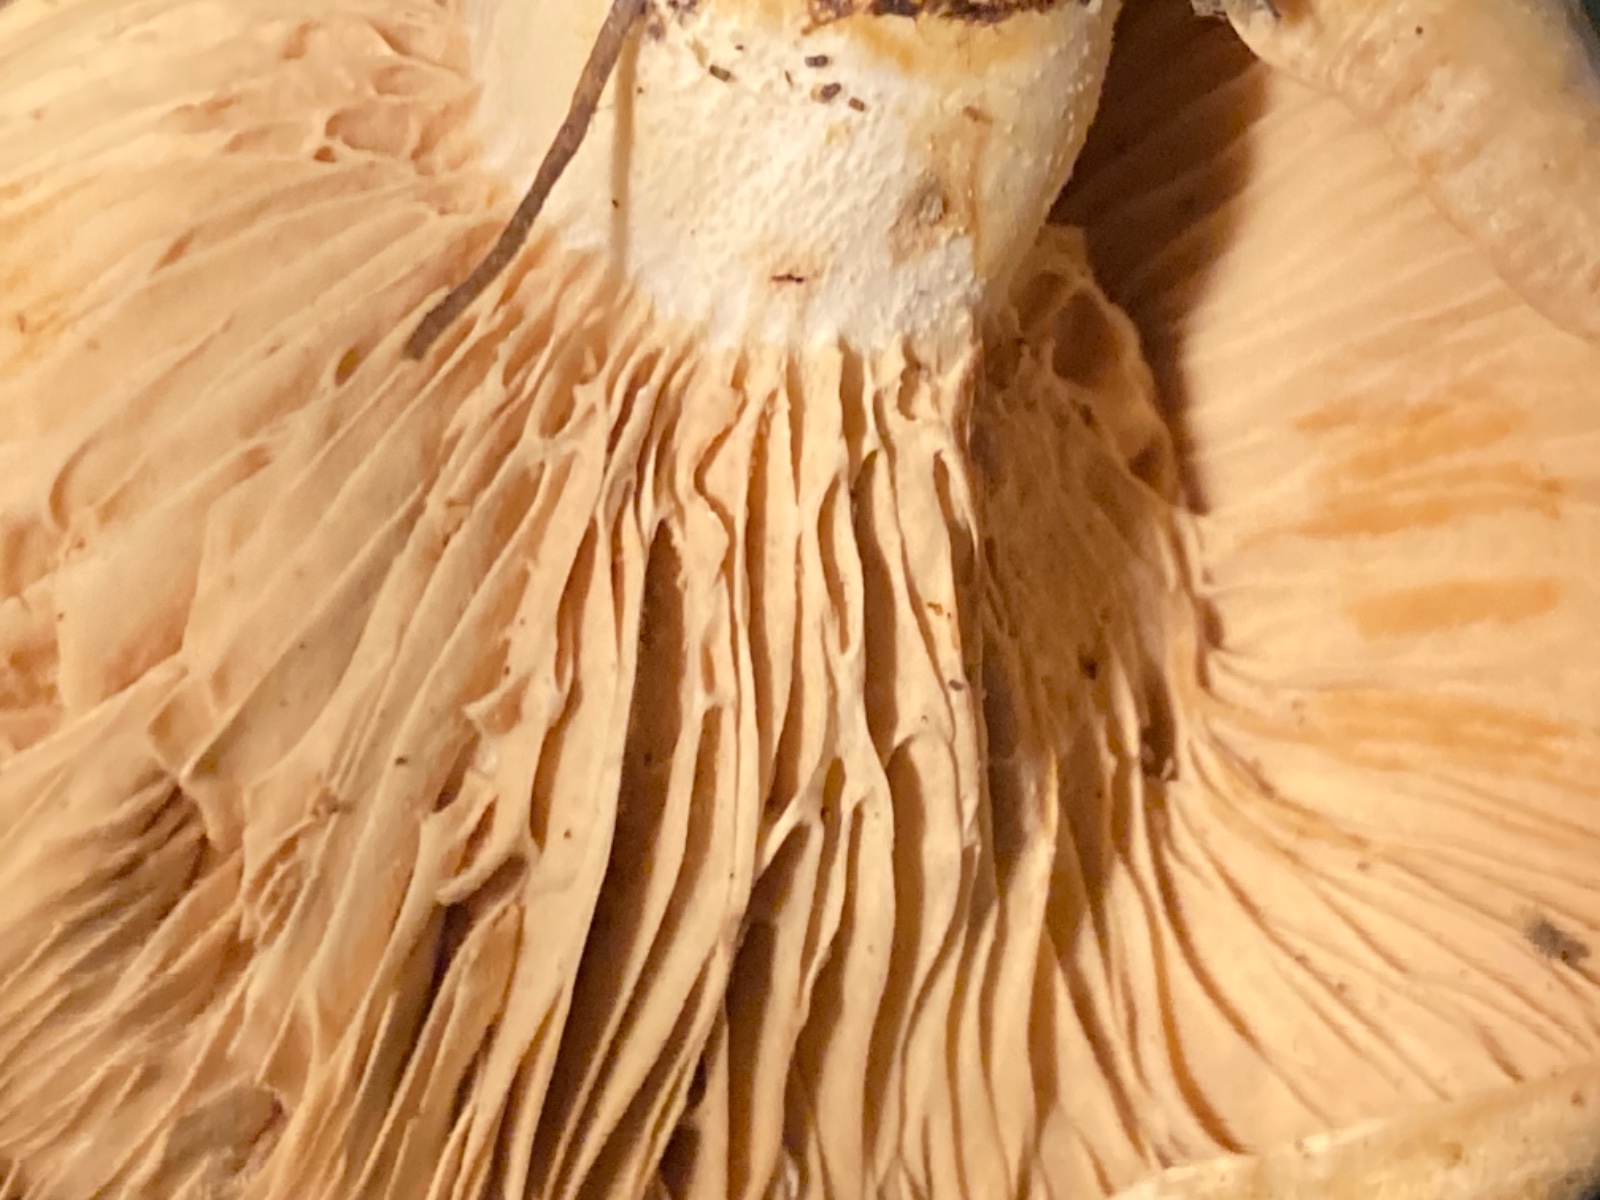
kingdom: Fungi
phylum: Basidiomycota
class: Agaricomycetes
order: Russulales
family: Russulaceae
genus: Lactarius
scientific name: Lactarius acerrimus
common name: brændende mælkehat
